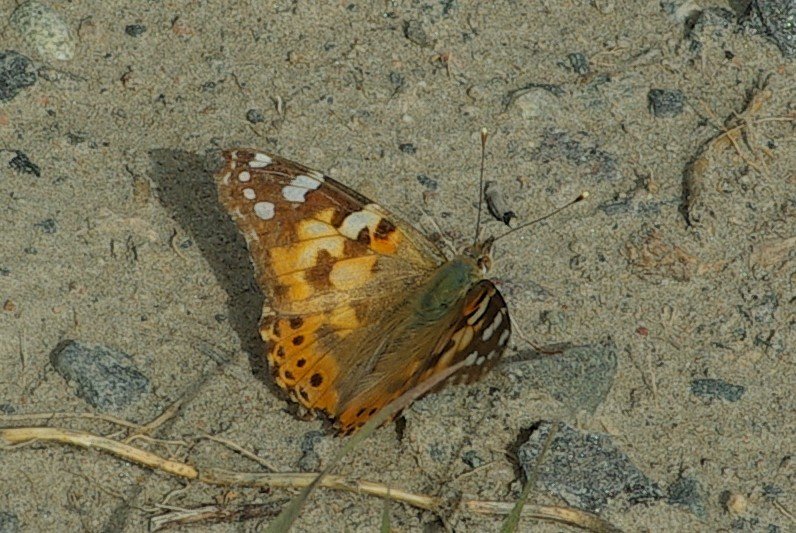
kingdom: Animalia
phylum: Arthropoda
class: Insecta
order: Lepidoptera
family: Nymphalidae
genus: Vanessa
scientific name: Vanessa cardui
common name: Painted Lady
